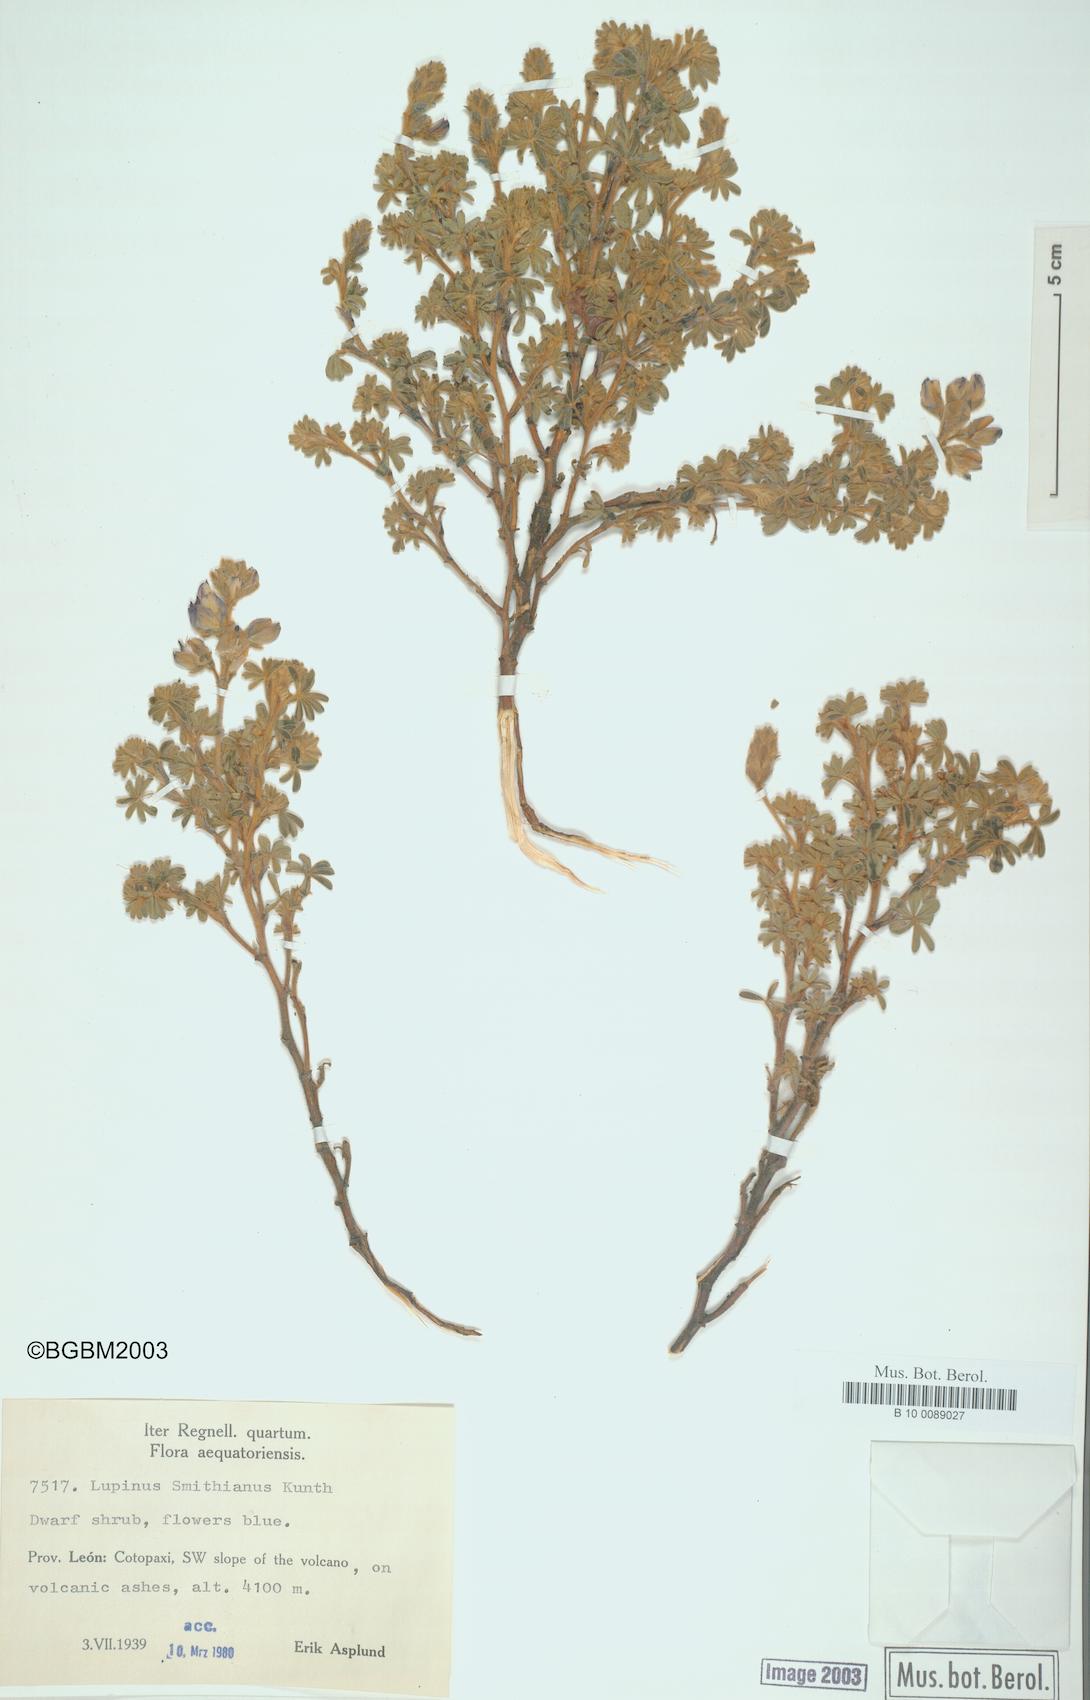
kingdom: Plantae
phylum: Tracheophyta
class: Magnoliopsida
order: Fabales
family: Fabaceae
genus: Lupinus
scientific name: Lupinus smithianus
